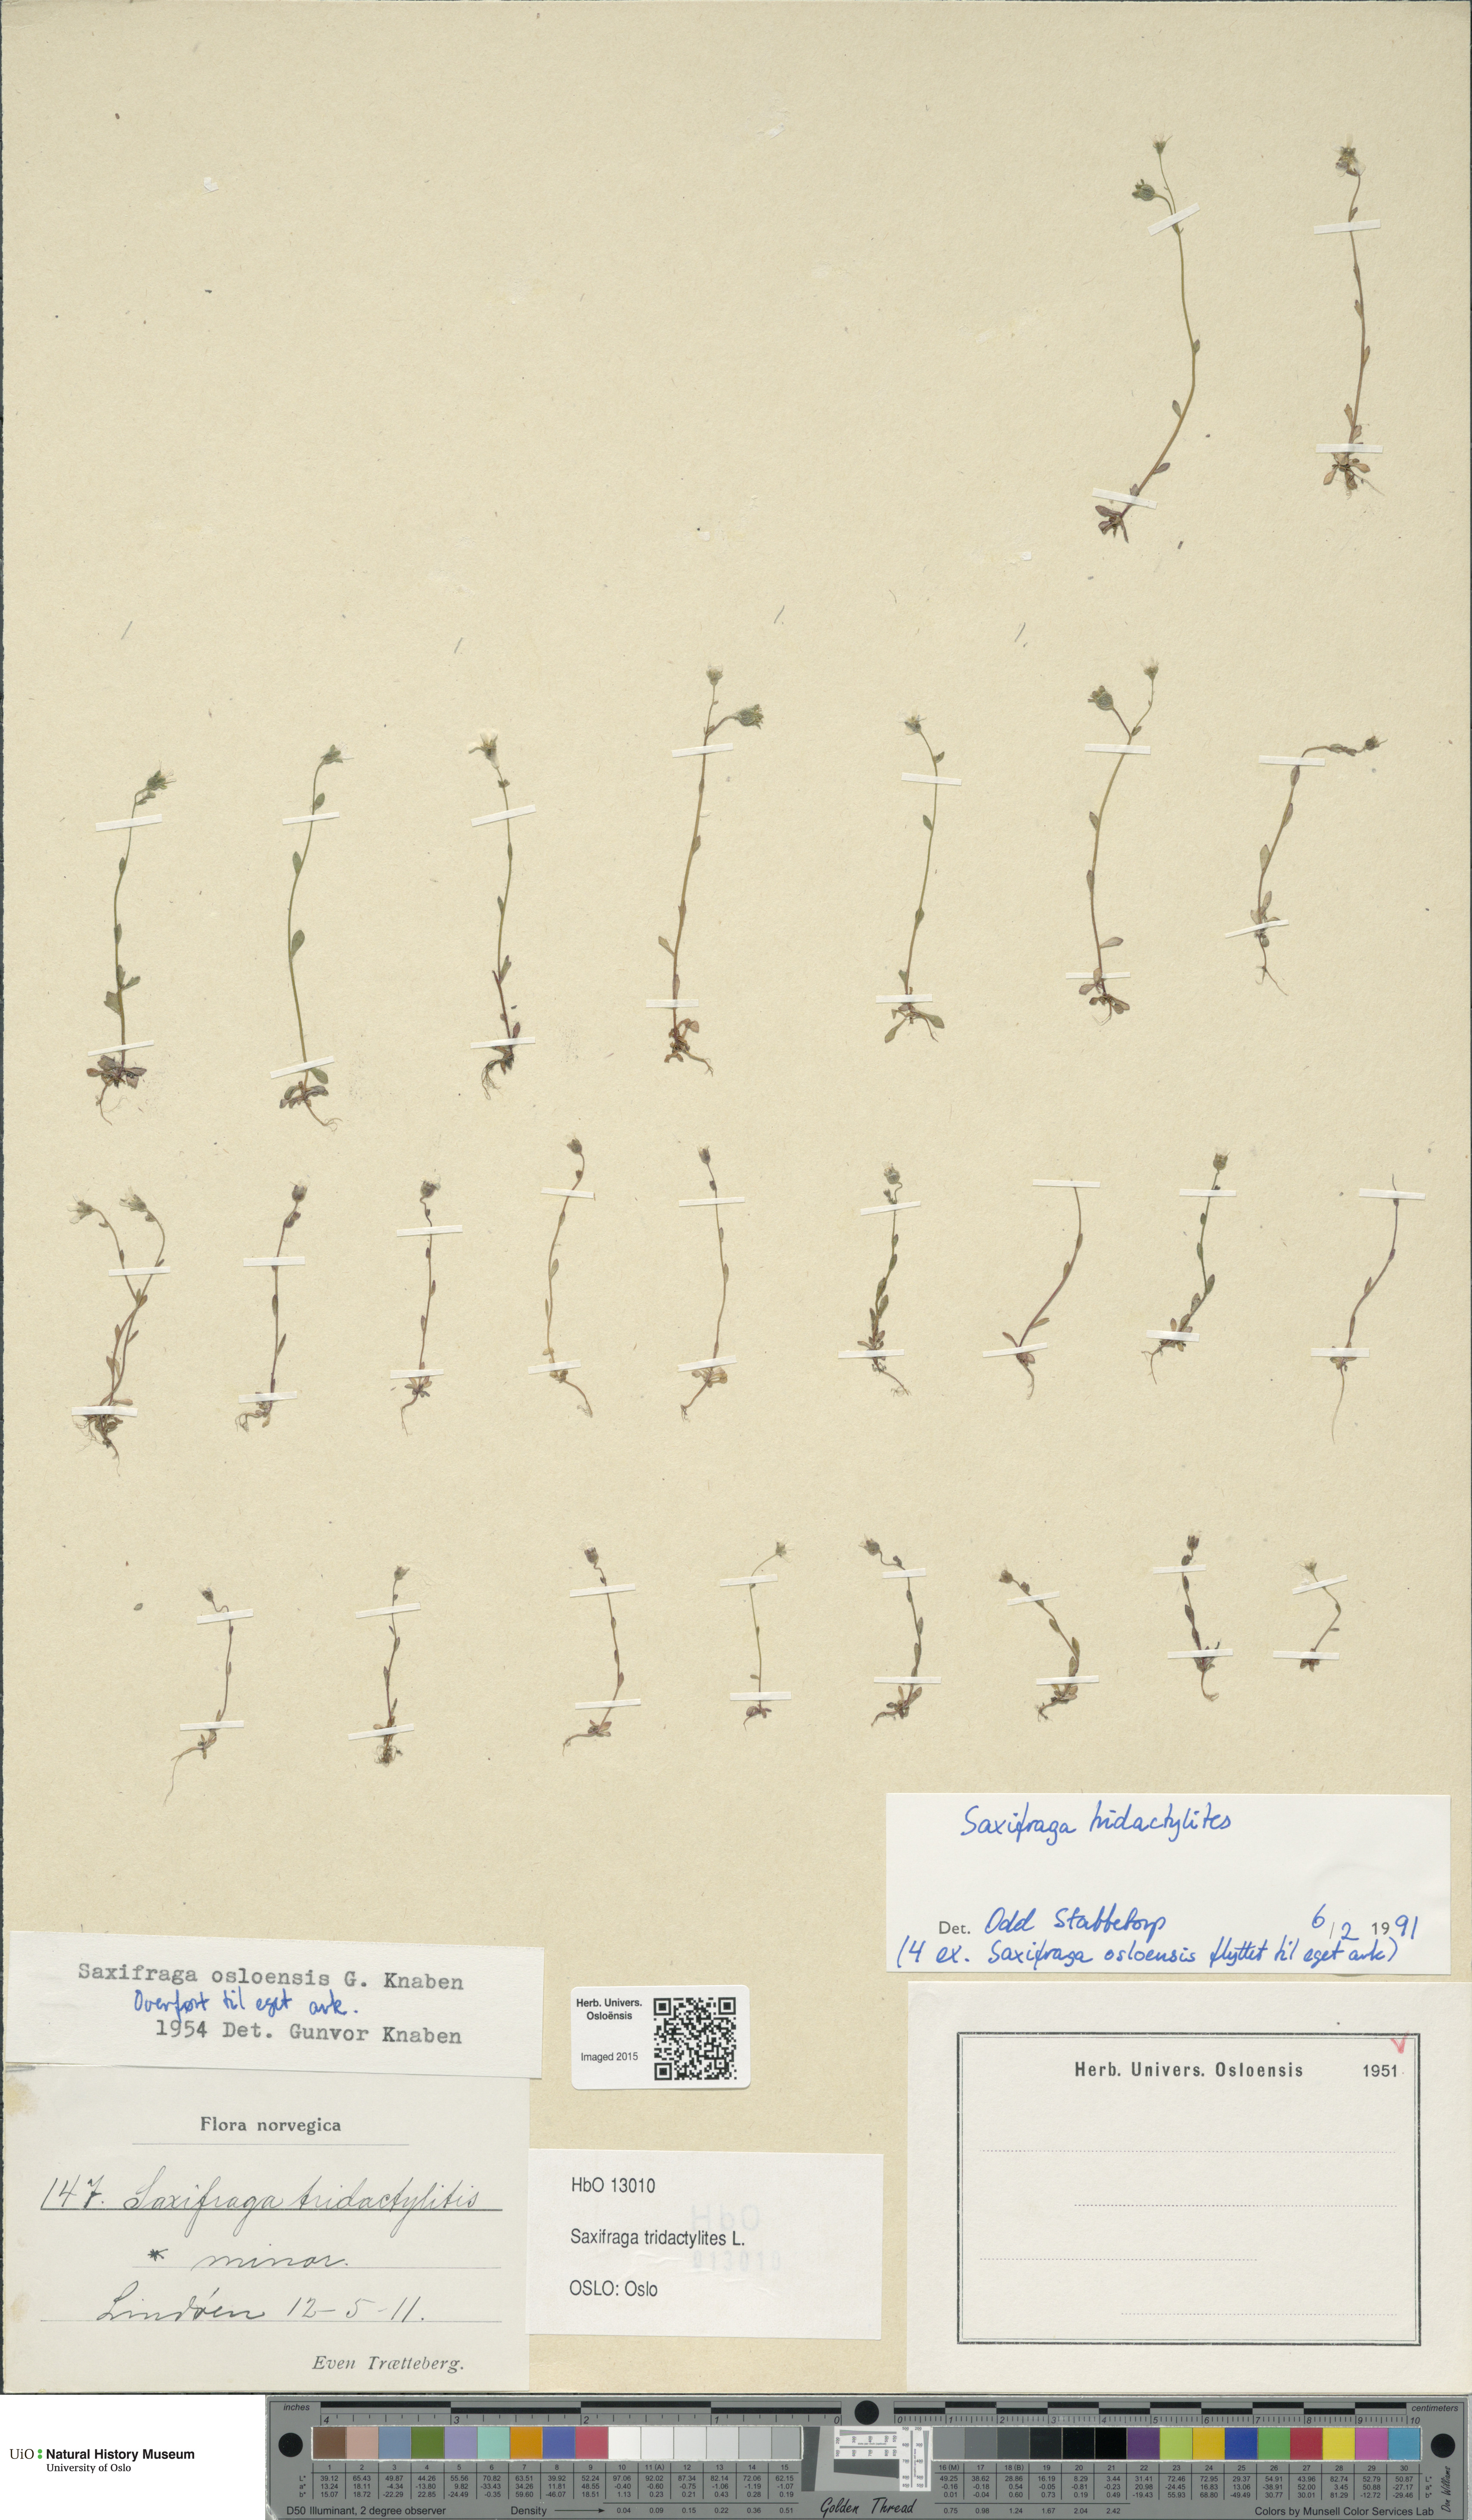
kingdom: Plantae
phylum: Tracheophyta
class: Magnoliopsida
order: Saxifragales
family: Saxifragaceae
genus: Saxifraga
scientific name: Saxifraga tridactylites
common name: Rue-leaved saxifrage
